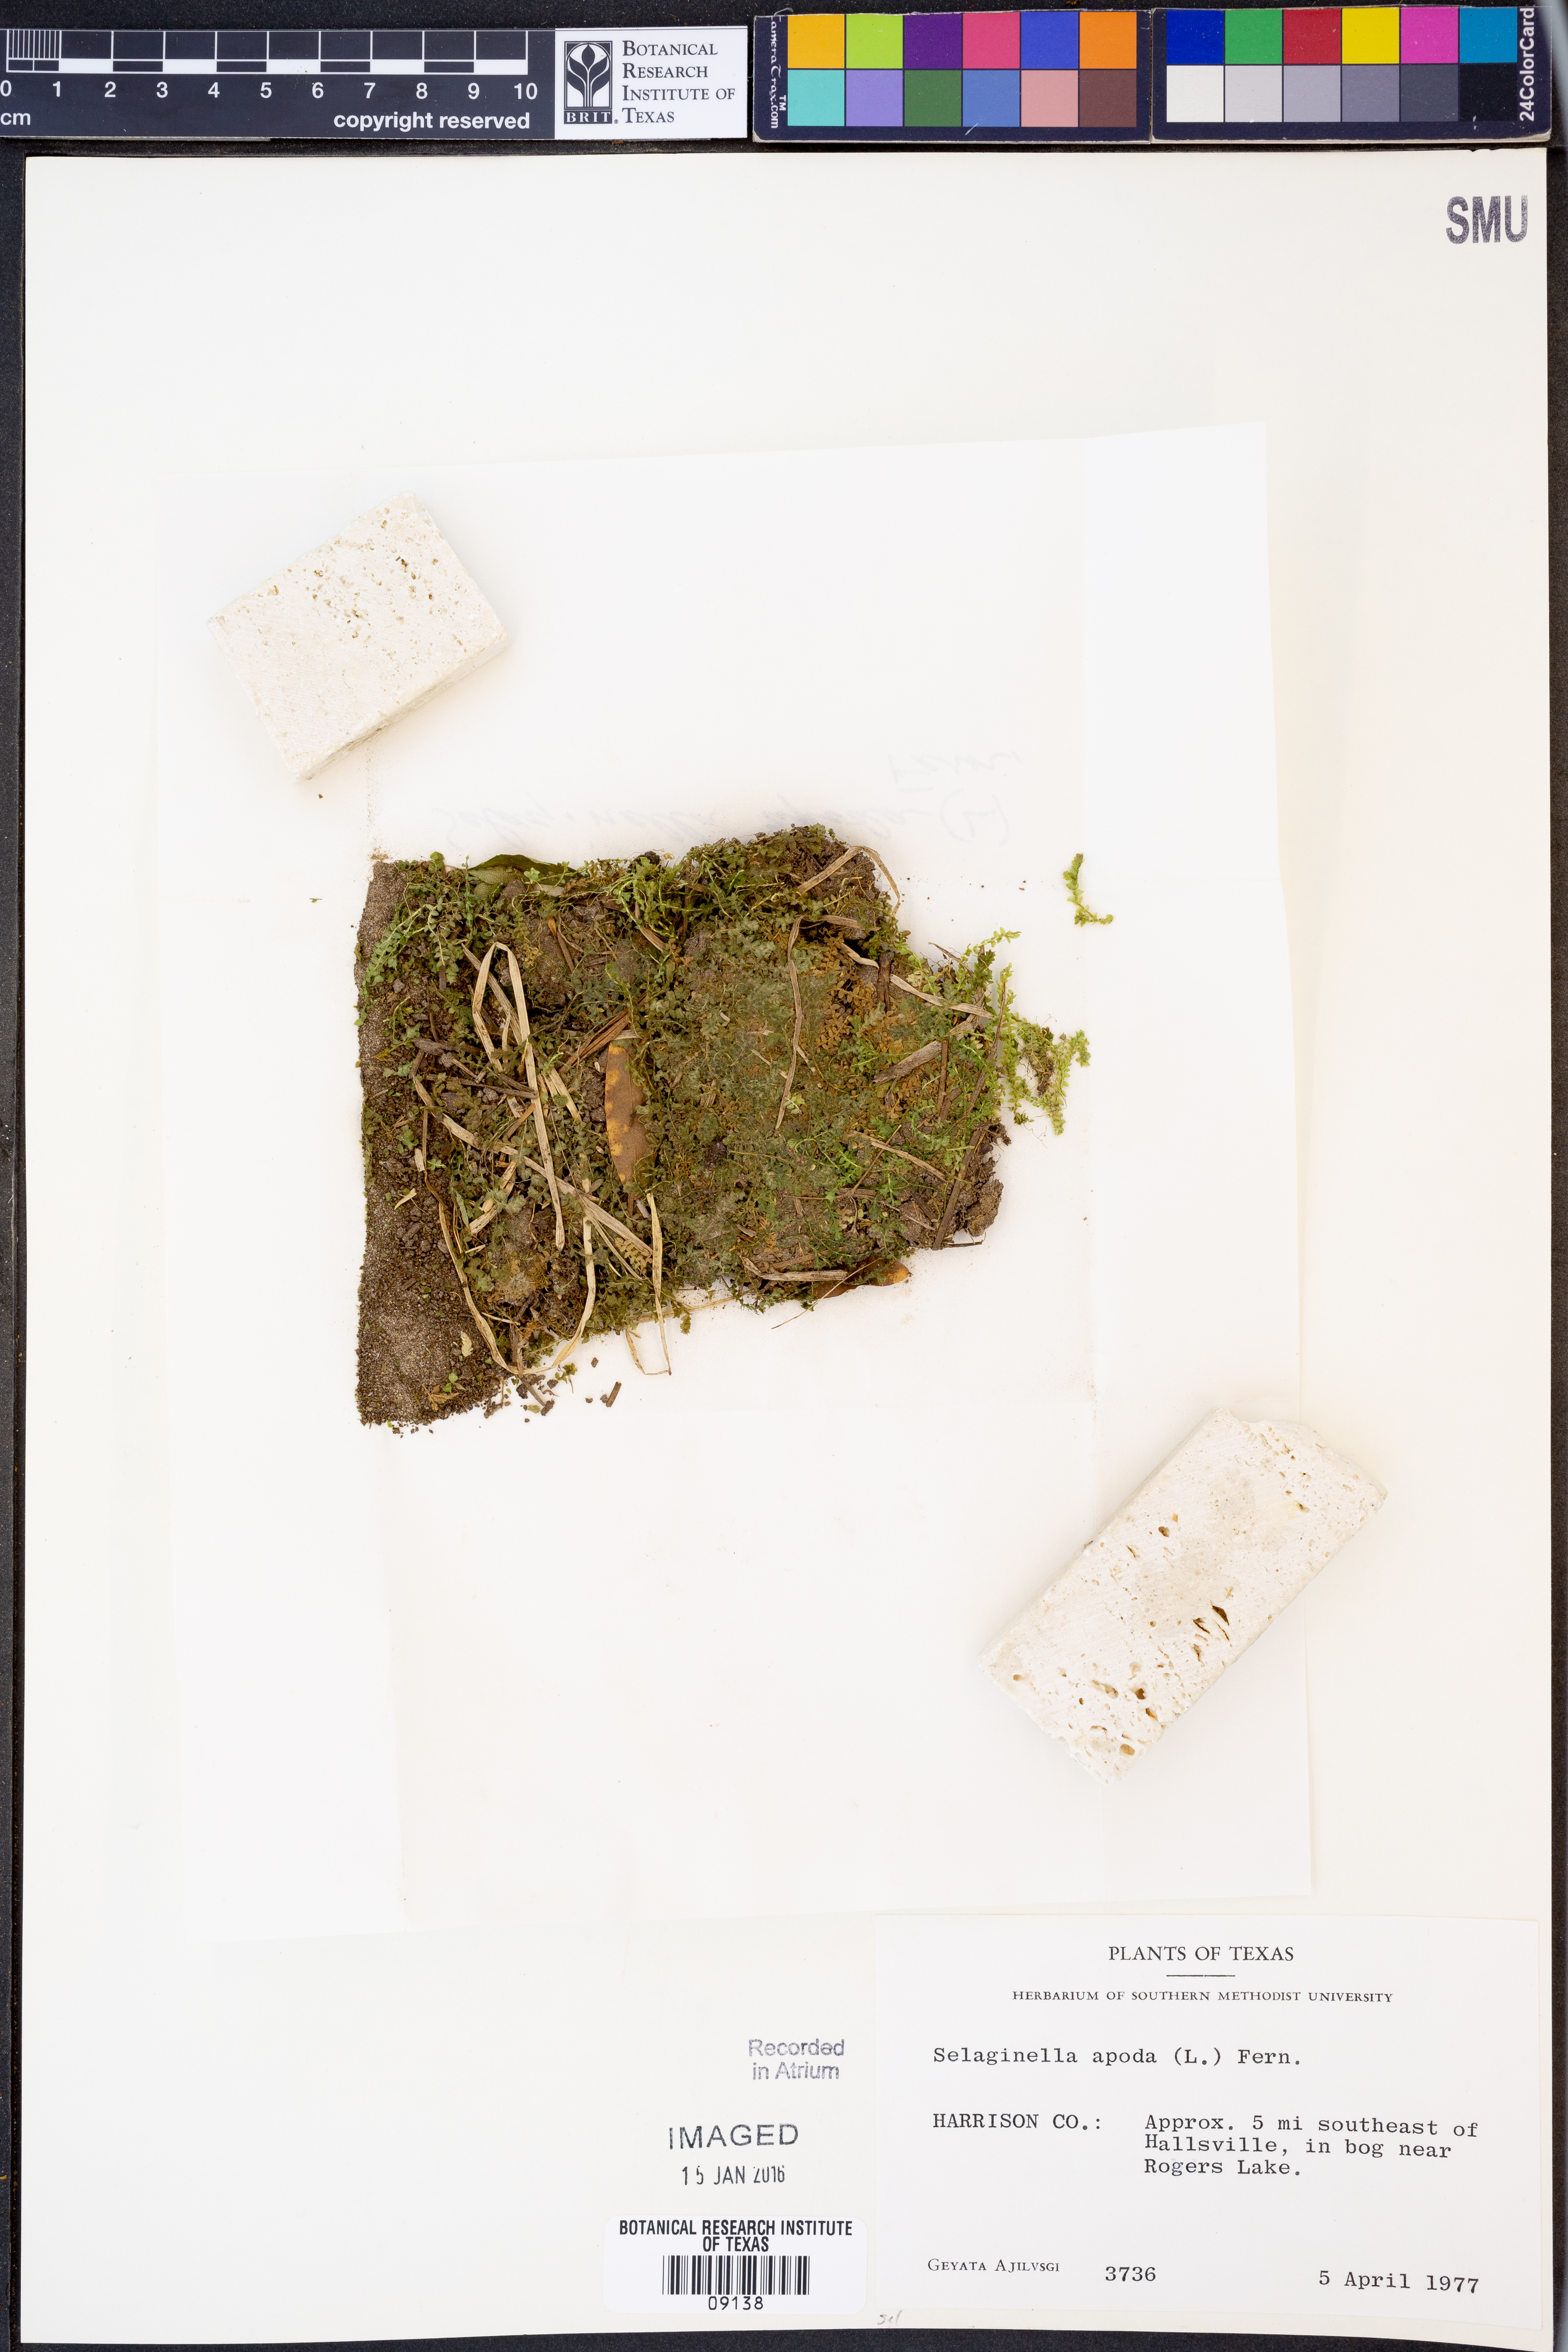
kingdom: Plantae
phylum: Tracheophyta
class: Lycopodiopsida
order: Selaginellales
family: Selaginellaceae
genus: Selaginella
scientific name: Selaginella apoda
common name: Creeping spikemoss
